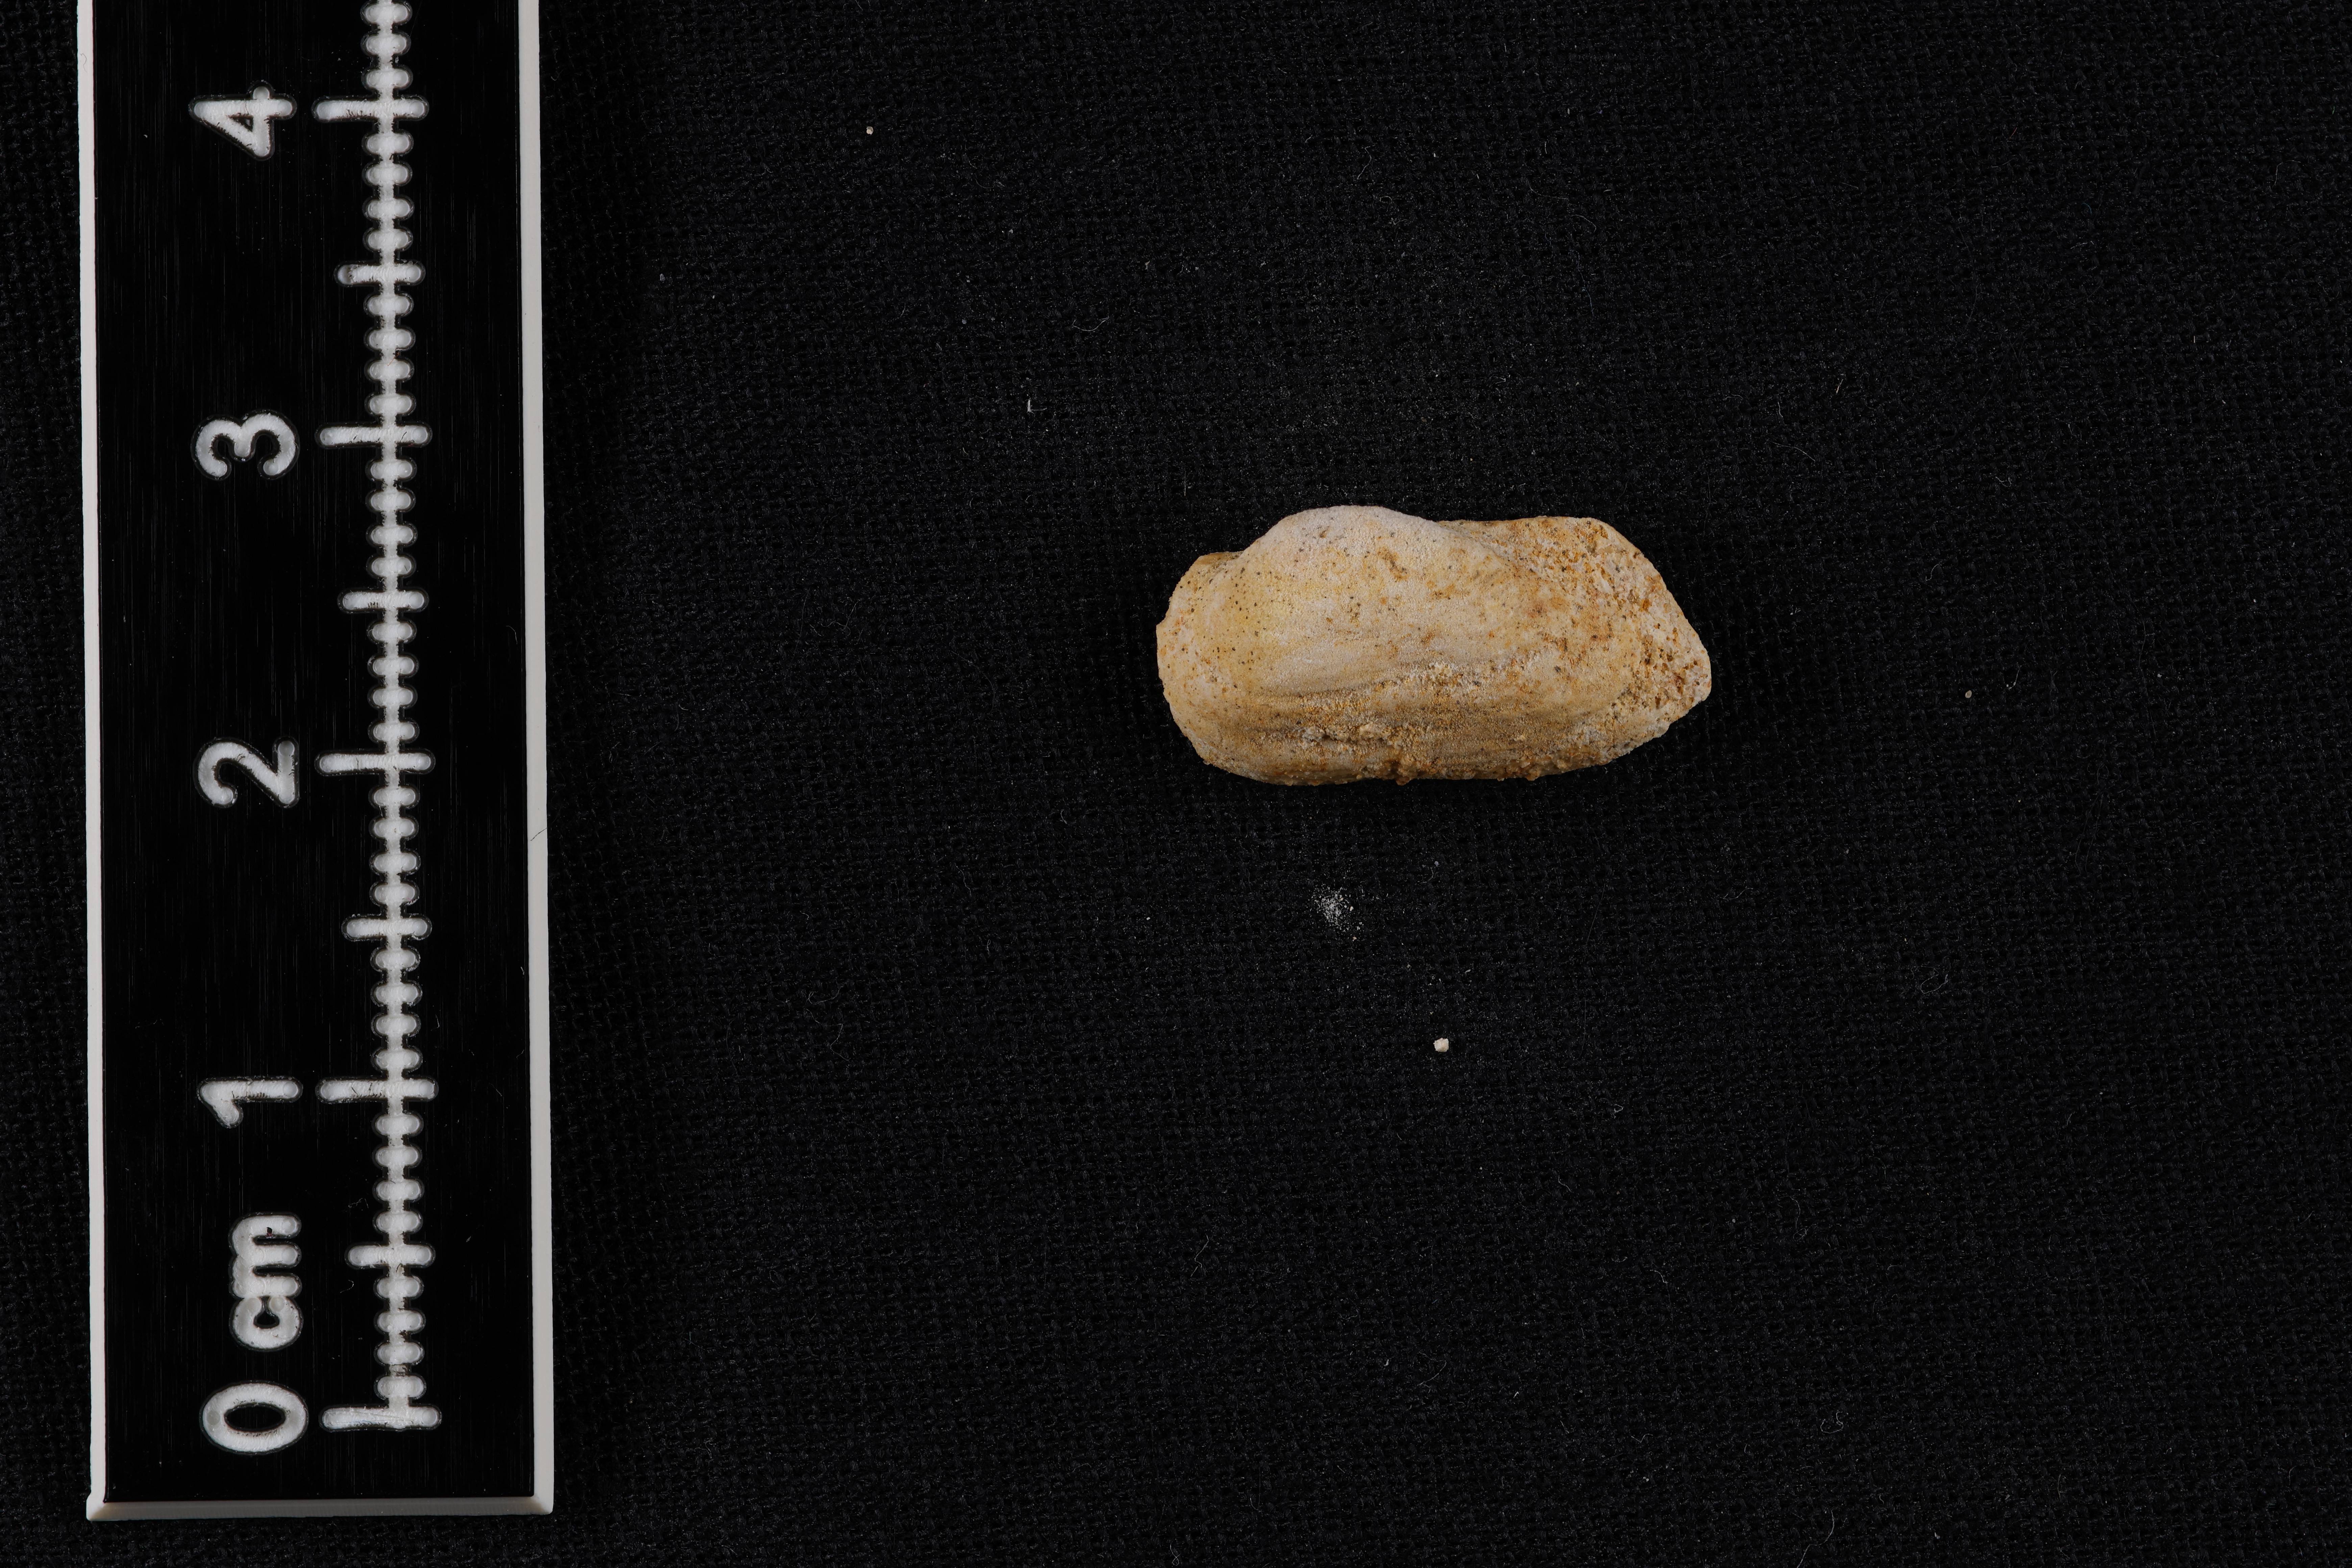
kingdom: Animalia
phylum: Mollusca
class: Bivalvia
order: Arcida
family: Cucullaeidae
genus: Idonearca
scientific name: Idonearca
